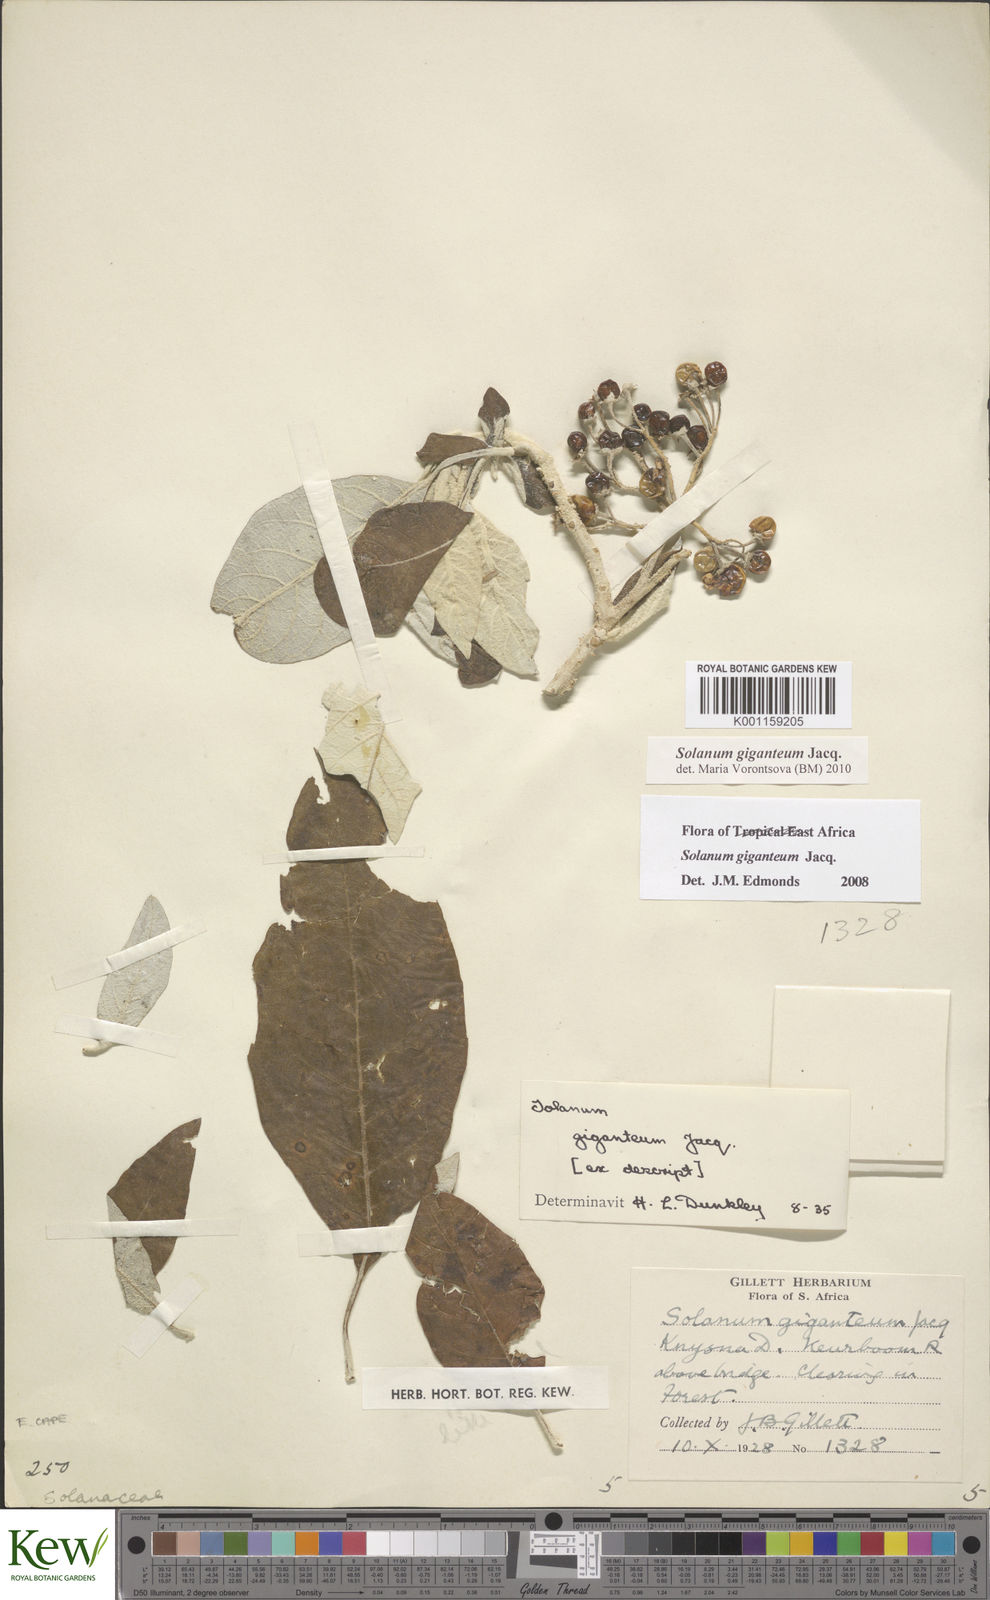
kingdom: Plantae
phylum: Tracheophyta
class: Magnoliopsida
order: Solanales
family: Solanaceae
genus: Solanum
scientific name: Solanum giganteum
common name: Healing-leaf-tree
